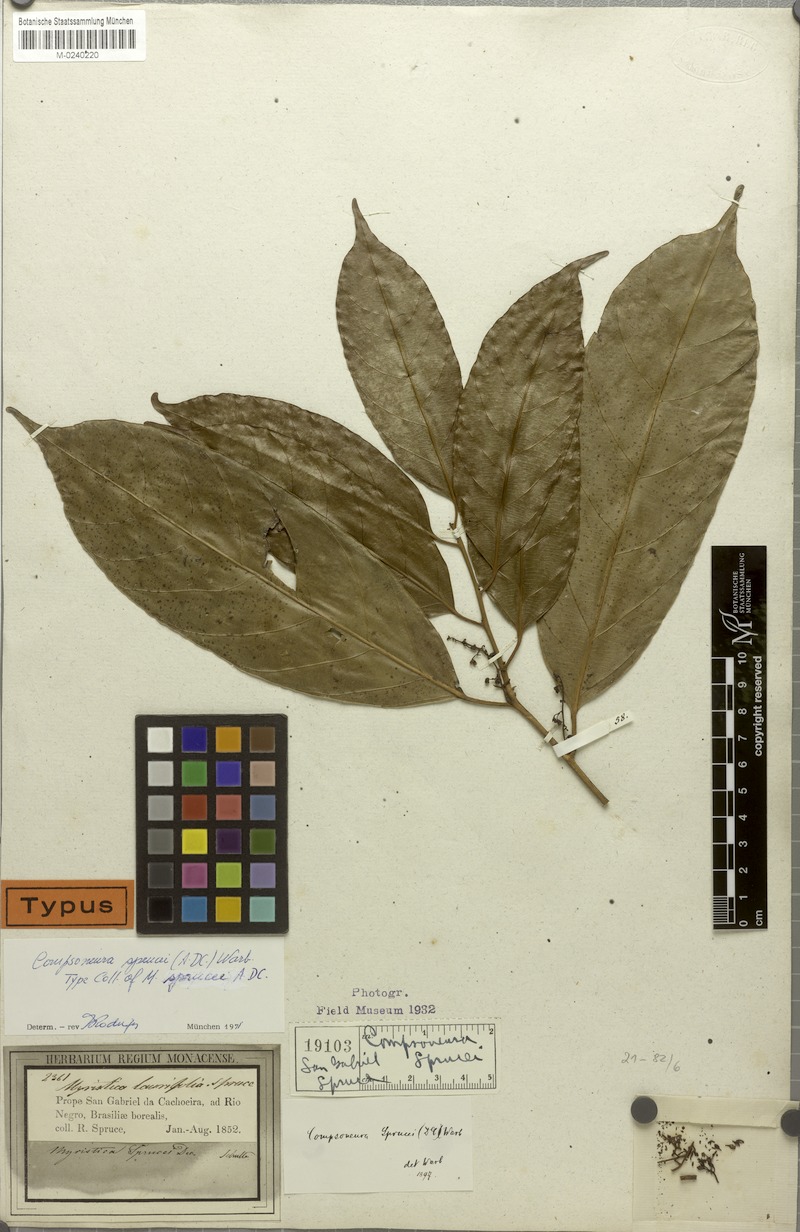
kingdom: Plantae
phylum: Tracheophyta
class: Magnoliopsida
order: Magnoliales
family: Myristicaceae
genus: Compsoneura
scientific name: Compsoneura sprucei
